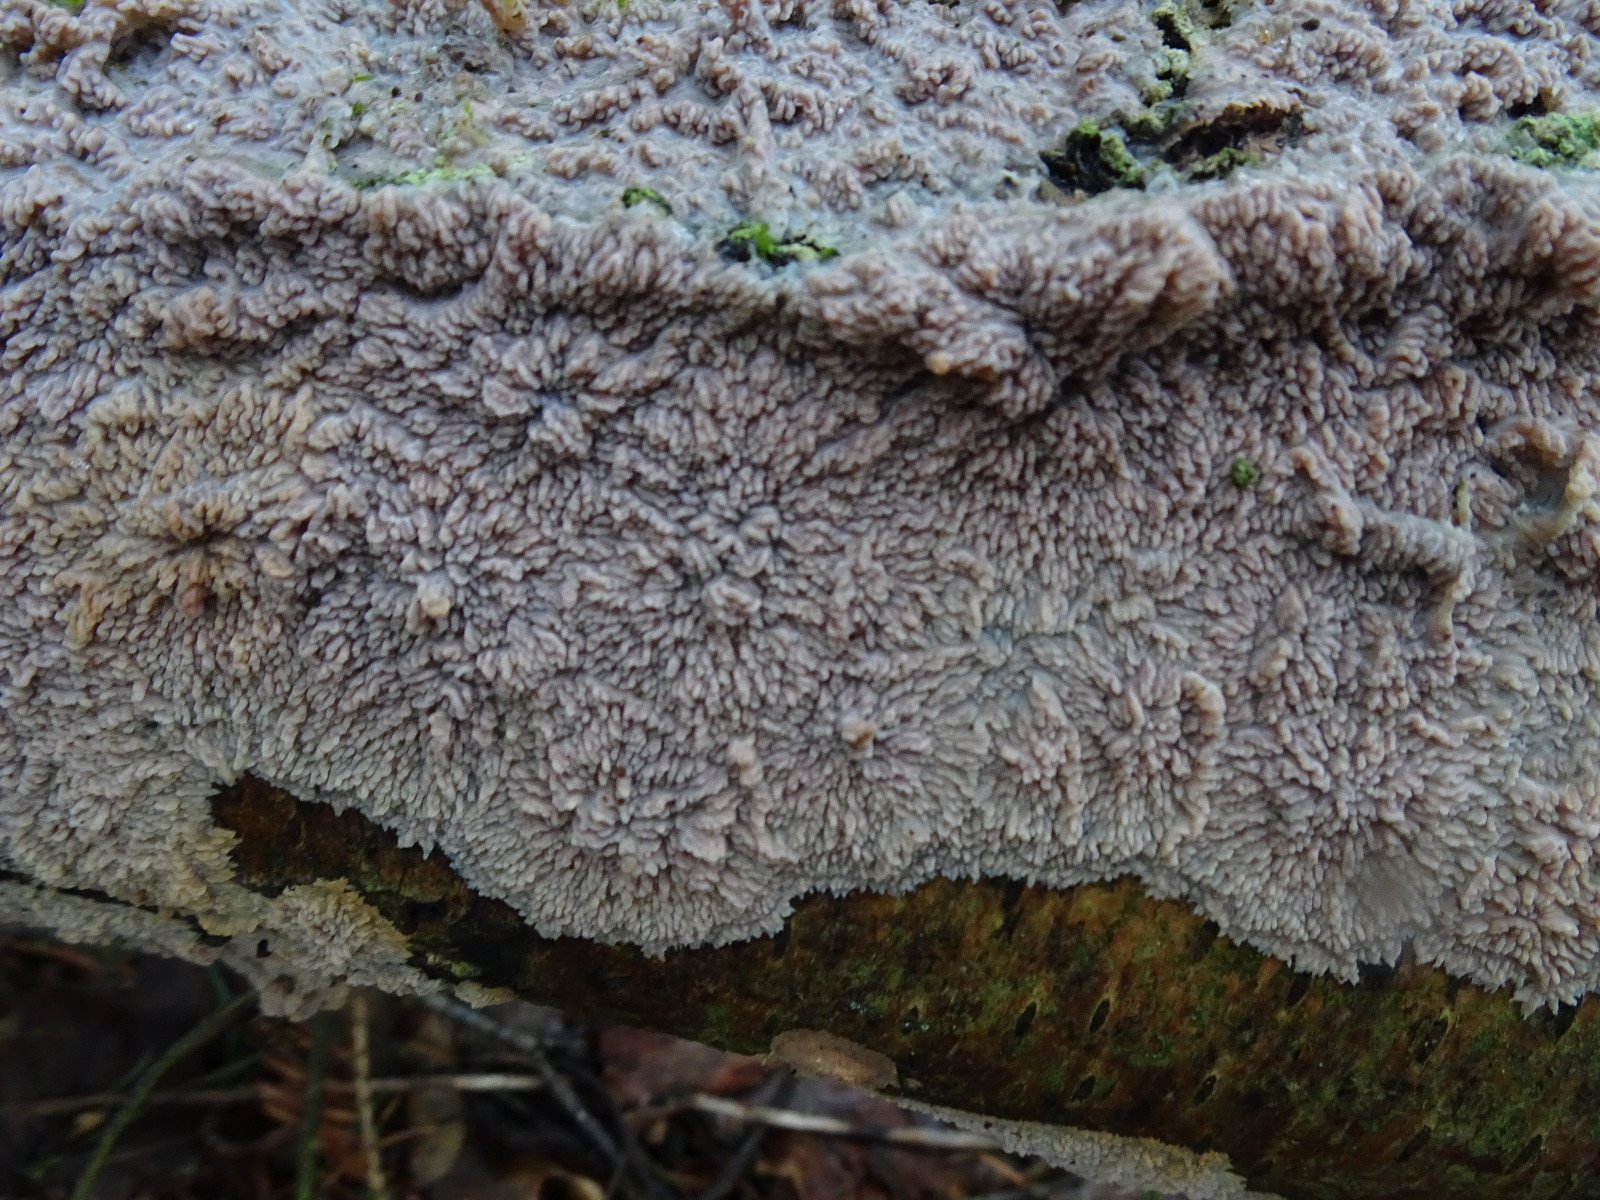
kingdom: Fungi
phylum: Basidiomycota
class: Agaricomycetes
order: Polyporales
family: Meruliaceae
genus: Phlebia
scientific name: Phlebia radiata
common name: stråle-åresvamp
